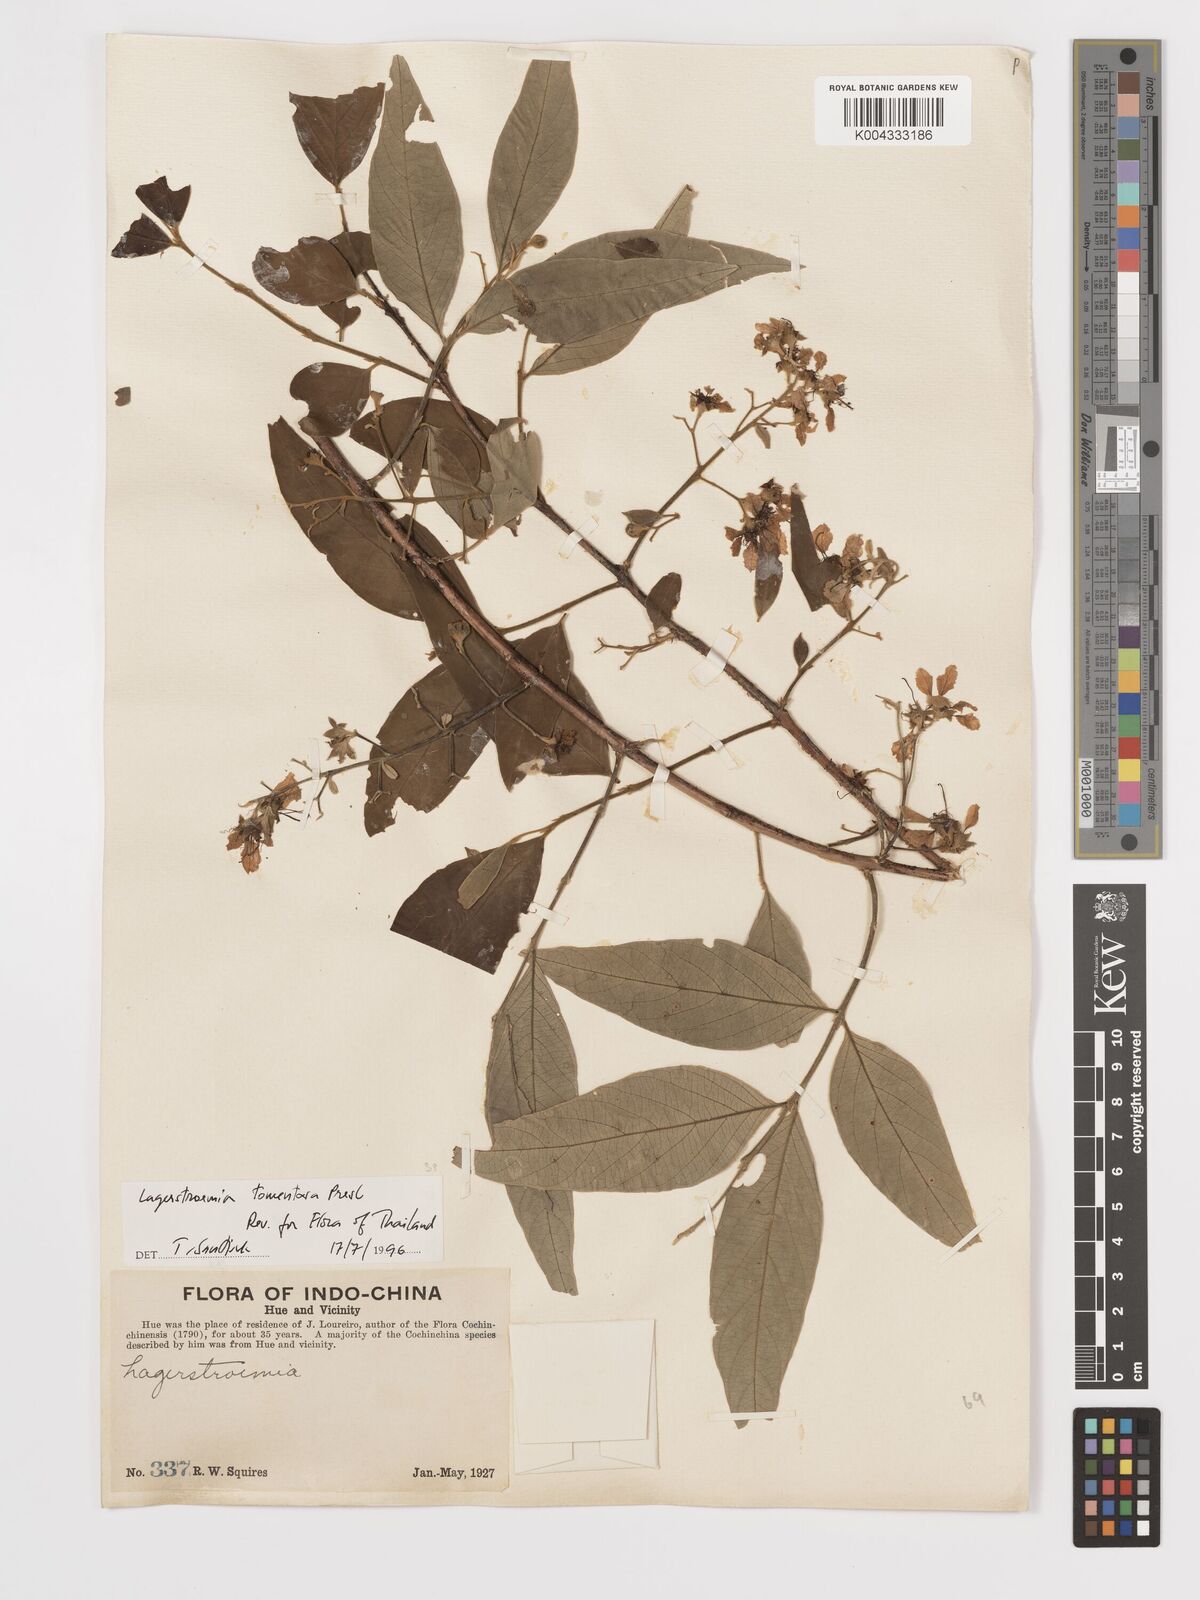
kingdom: Plantae
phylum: Tracheophyta
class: Magnoliopsida
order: Myrtales
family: Lythraceae
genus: Lagerstroemia
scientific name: Lagerstroemia tomentosa
